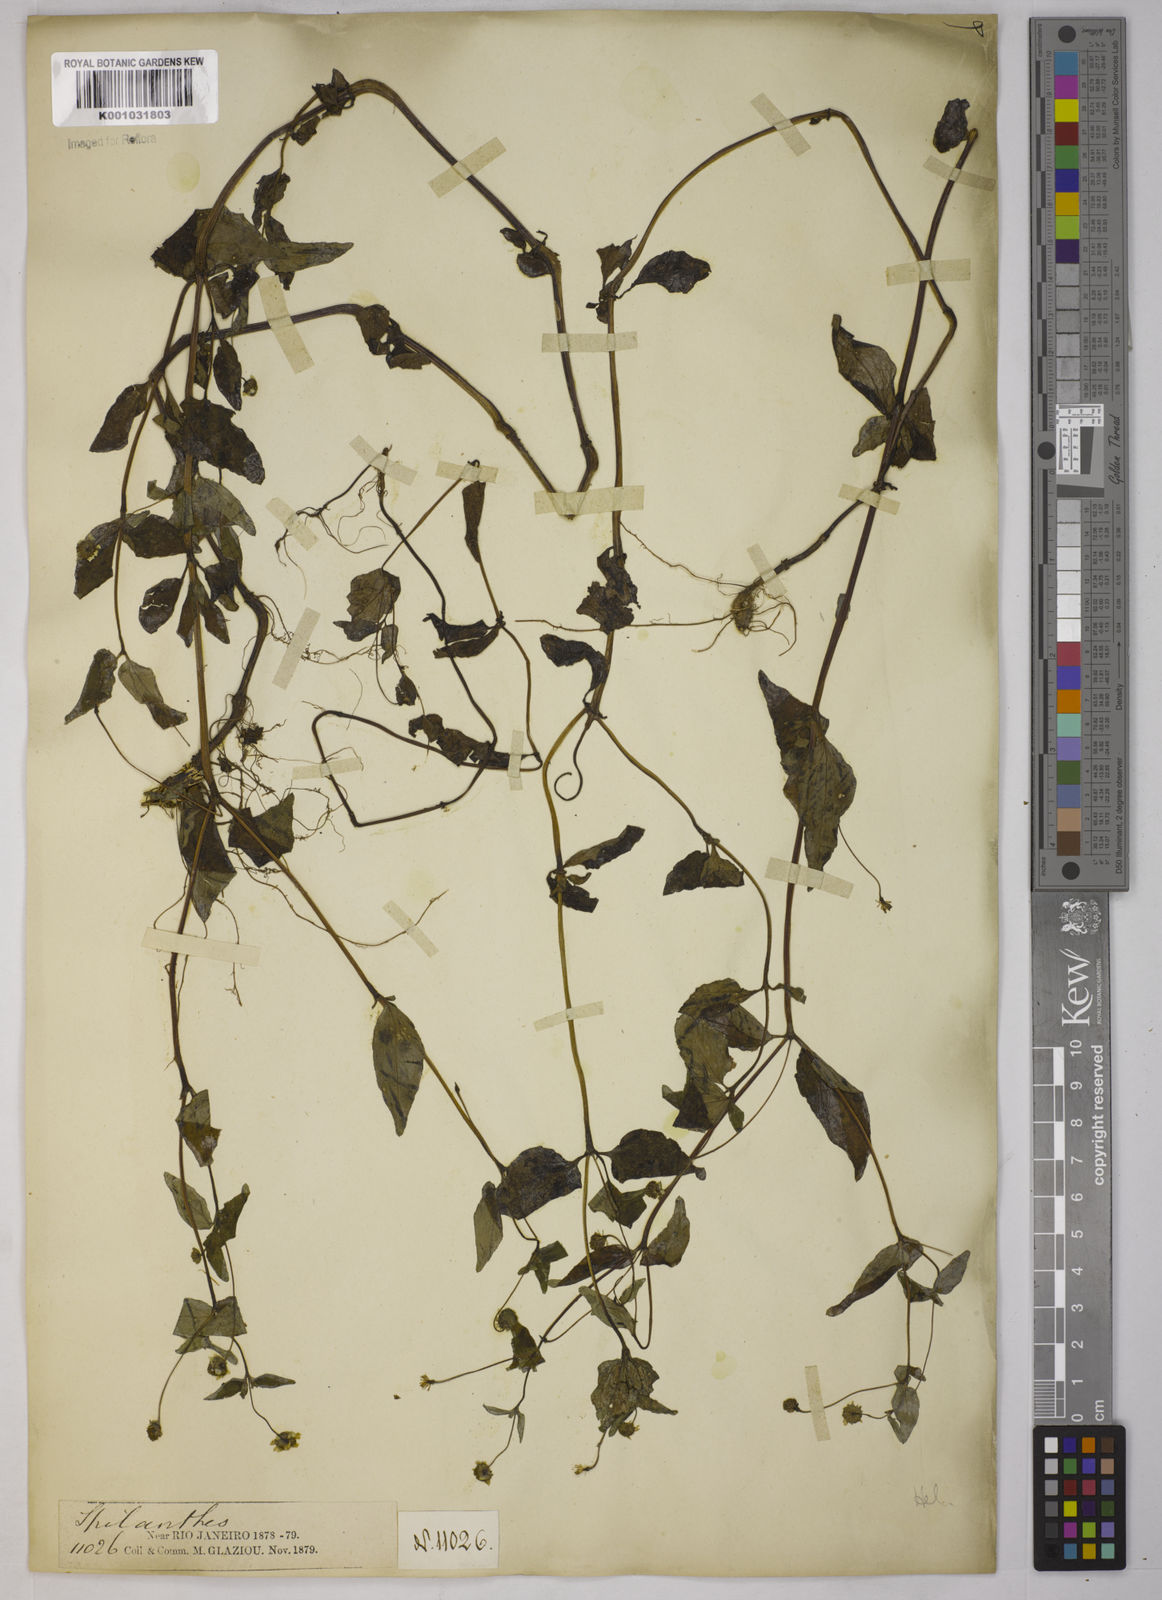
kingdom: Plantae
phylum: Tracheophyta
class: Magnoliopsida
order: Asterales
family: Asteraceae
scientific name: Asteraceae
